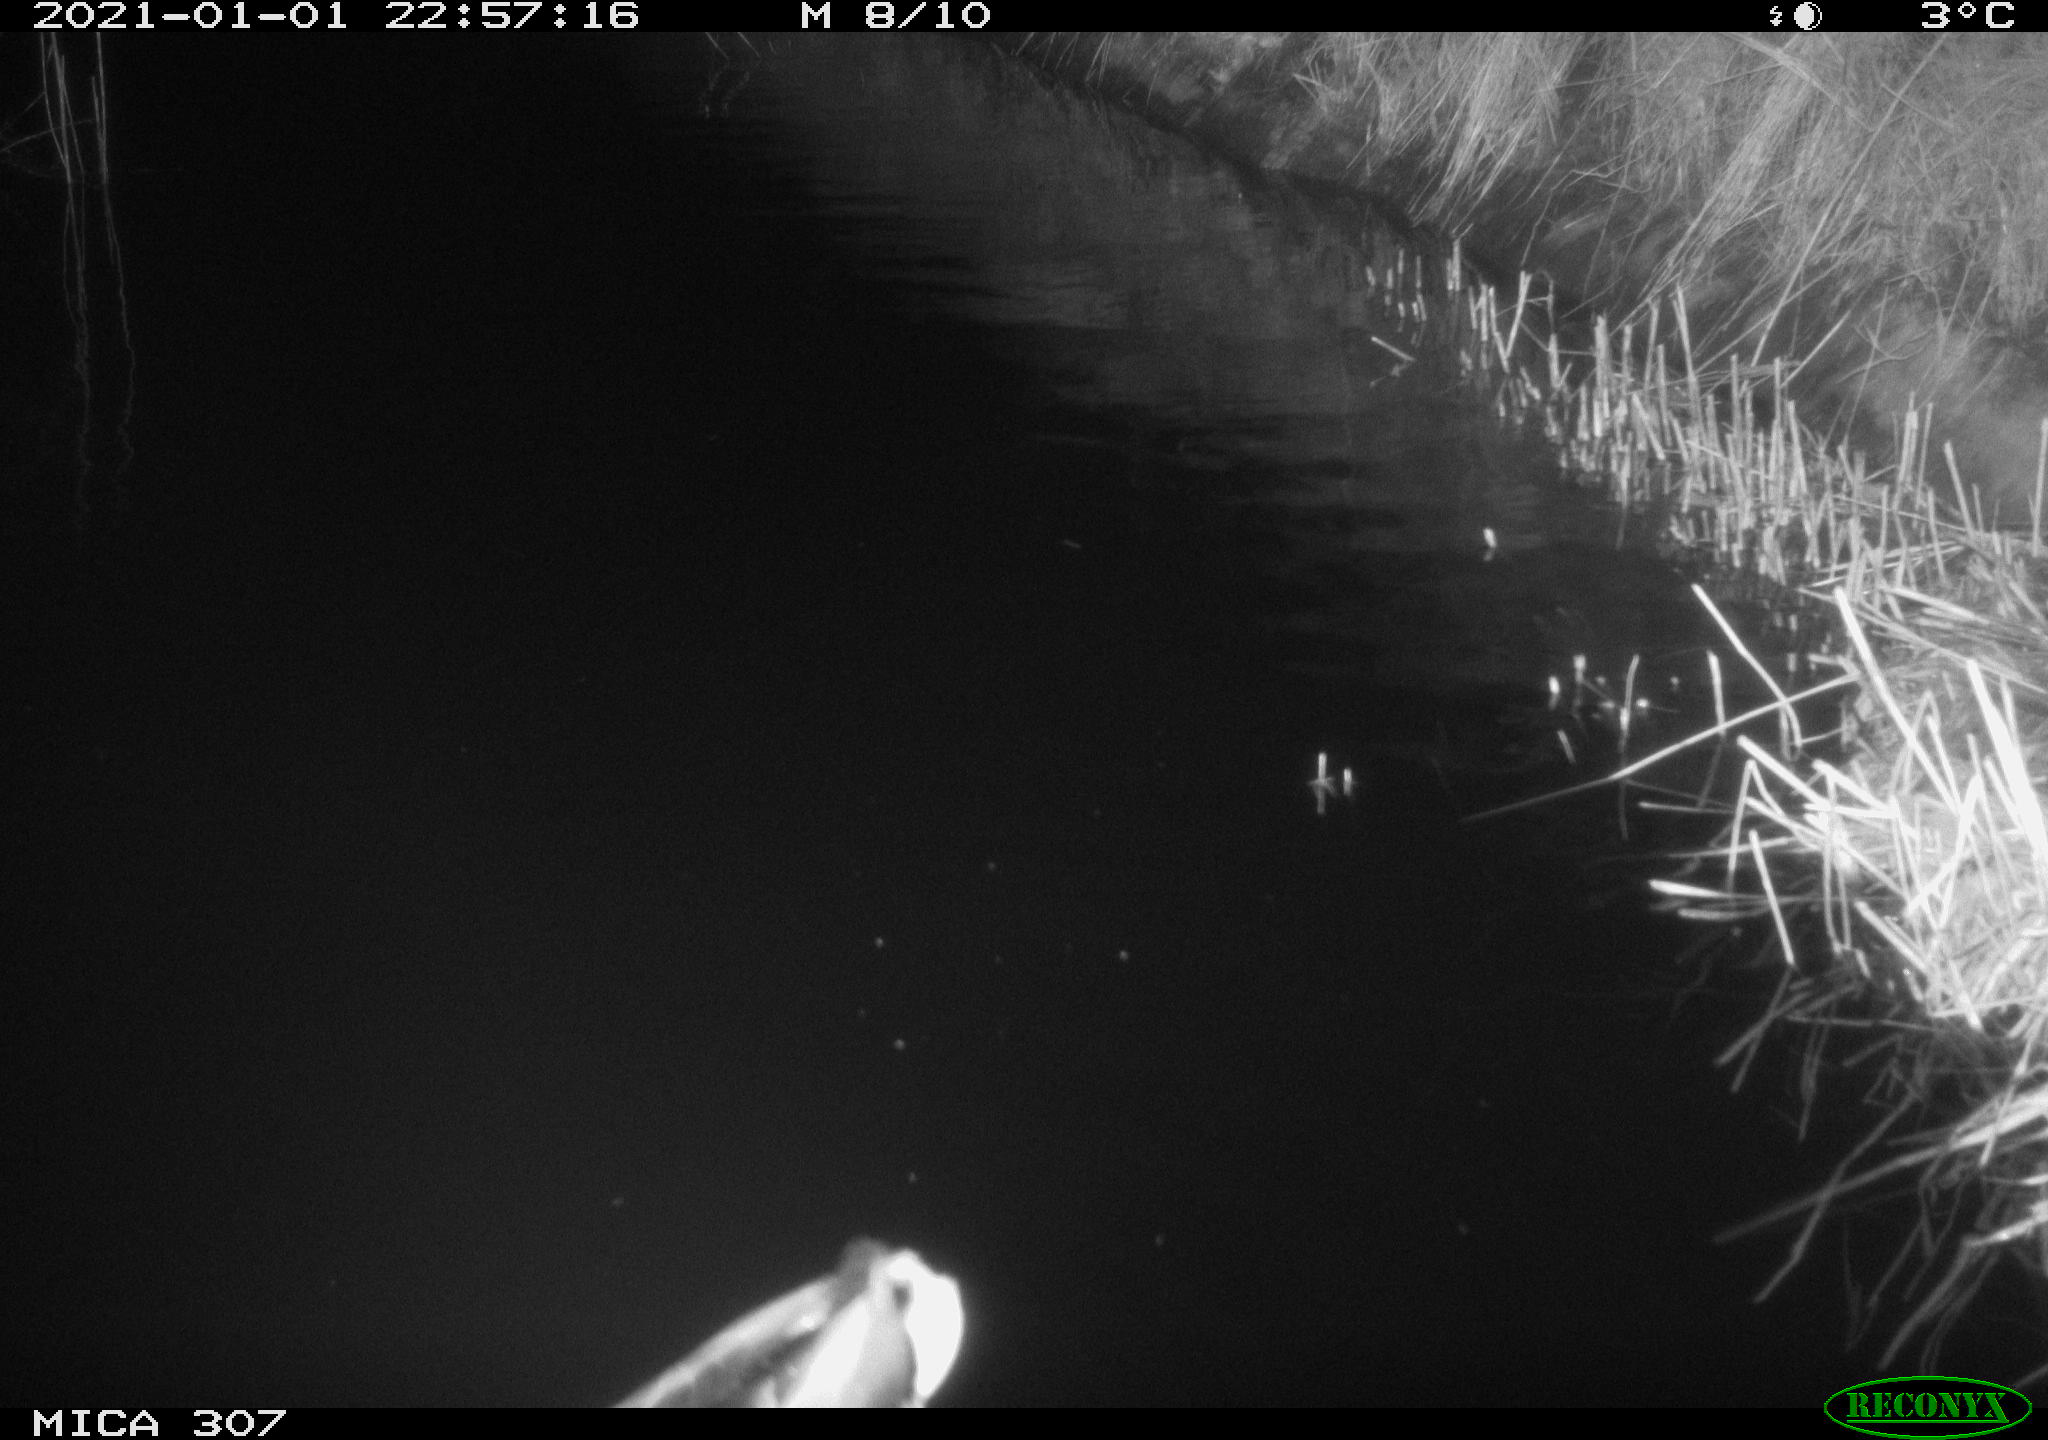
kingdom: Animalia
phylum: Chordata
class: Aves
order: Anseriformes
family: Anatidae
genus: Anas
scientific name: Anas platyrhynchos
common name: Mallard
